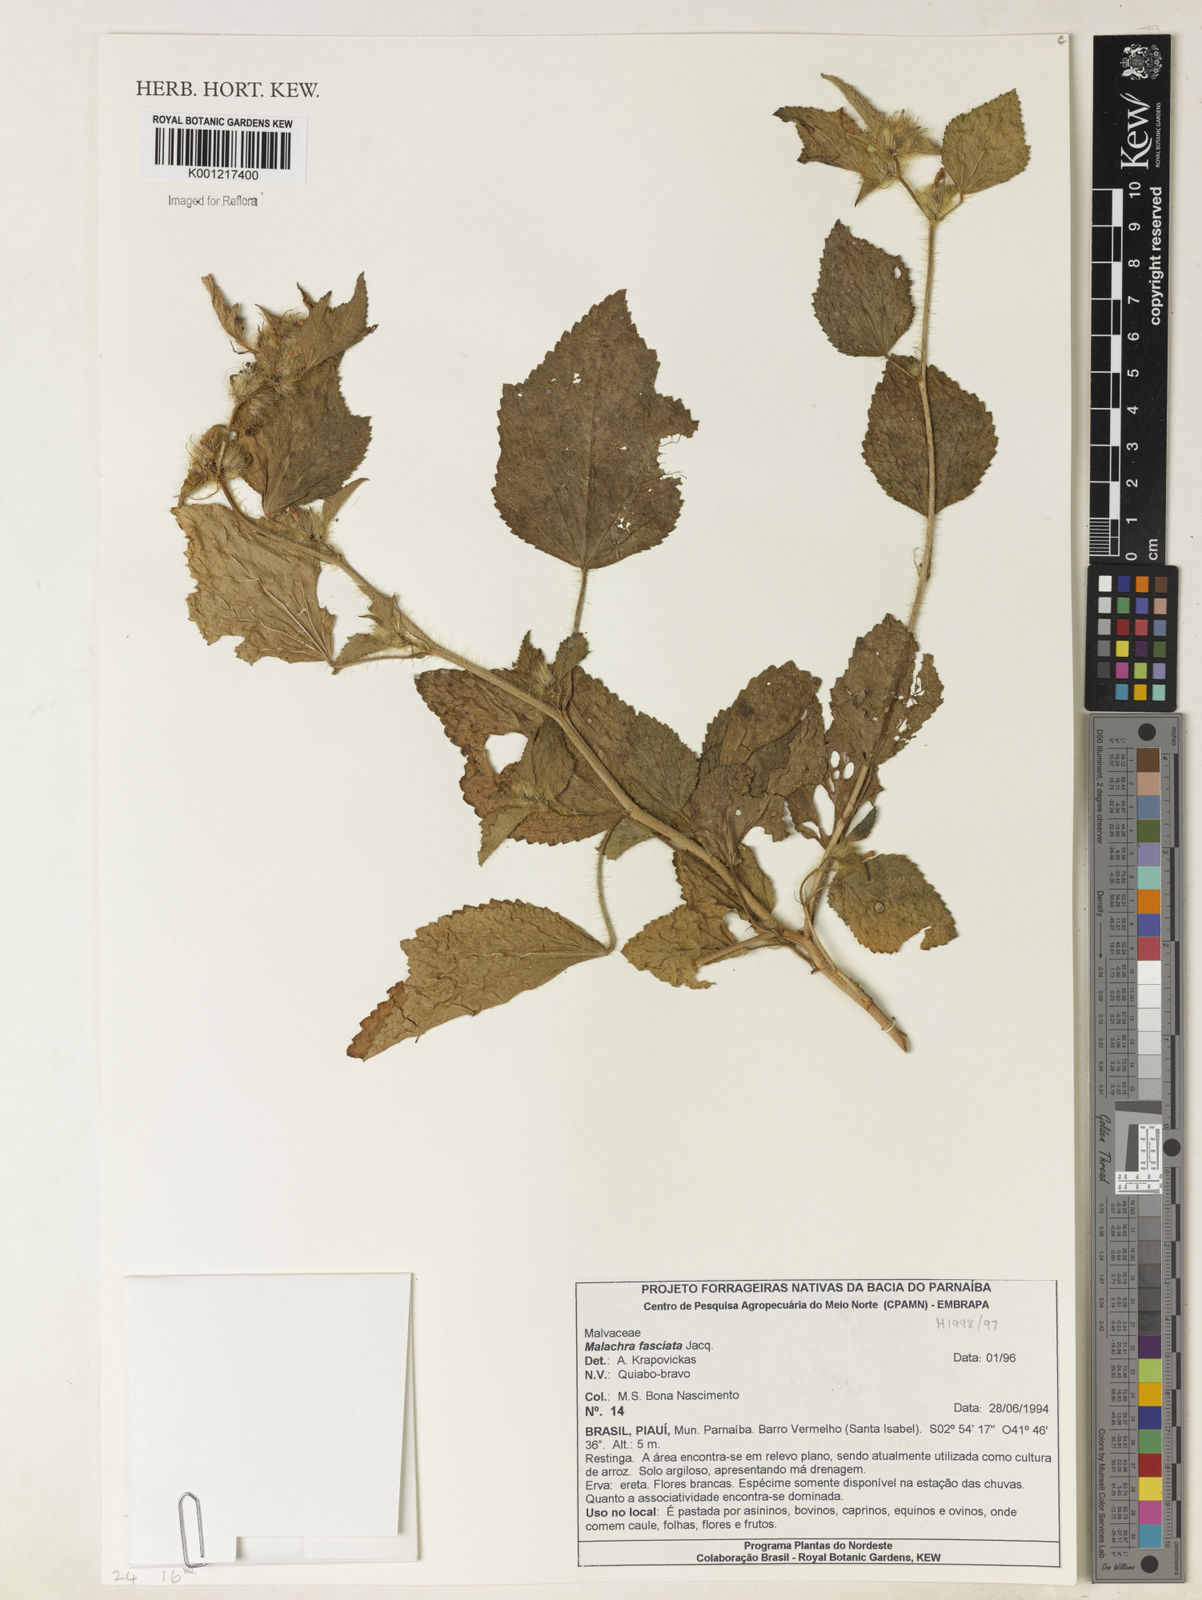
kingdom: Plantae
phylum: Tracheophyta
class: Magnoliopsida
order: Malvales
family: Malvaceae
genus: Malachra
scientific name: Malachra fasciata
